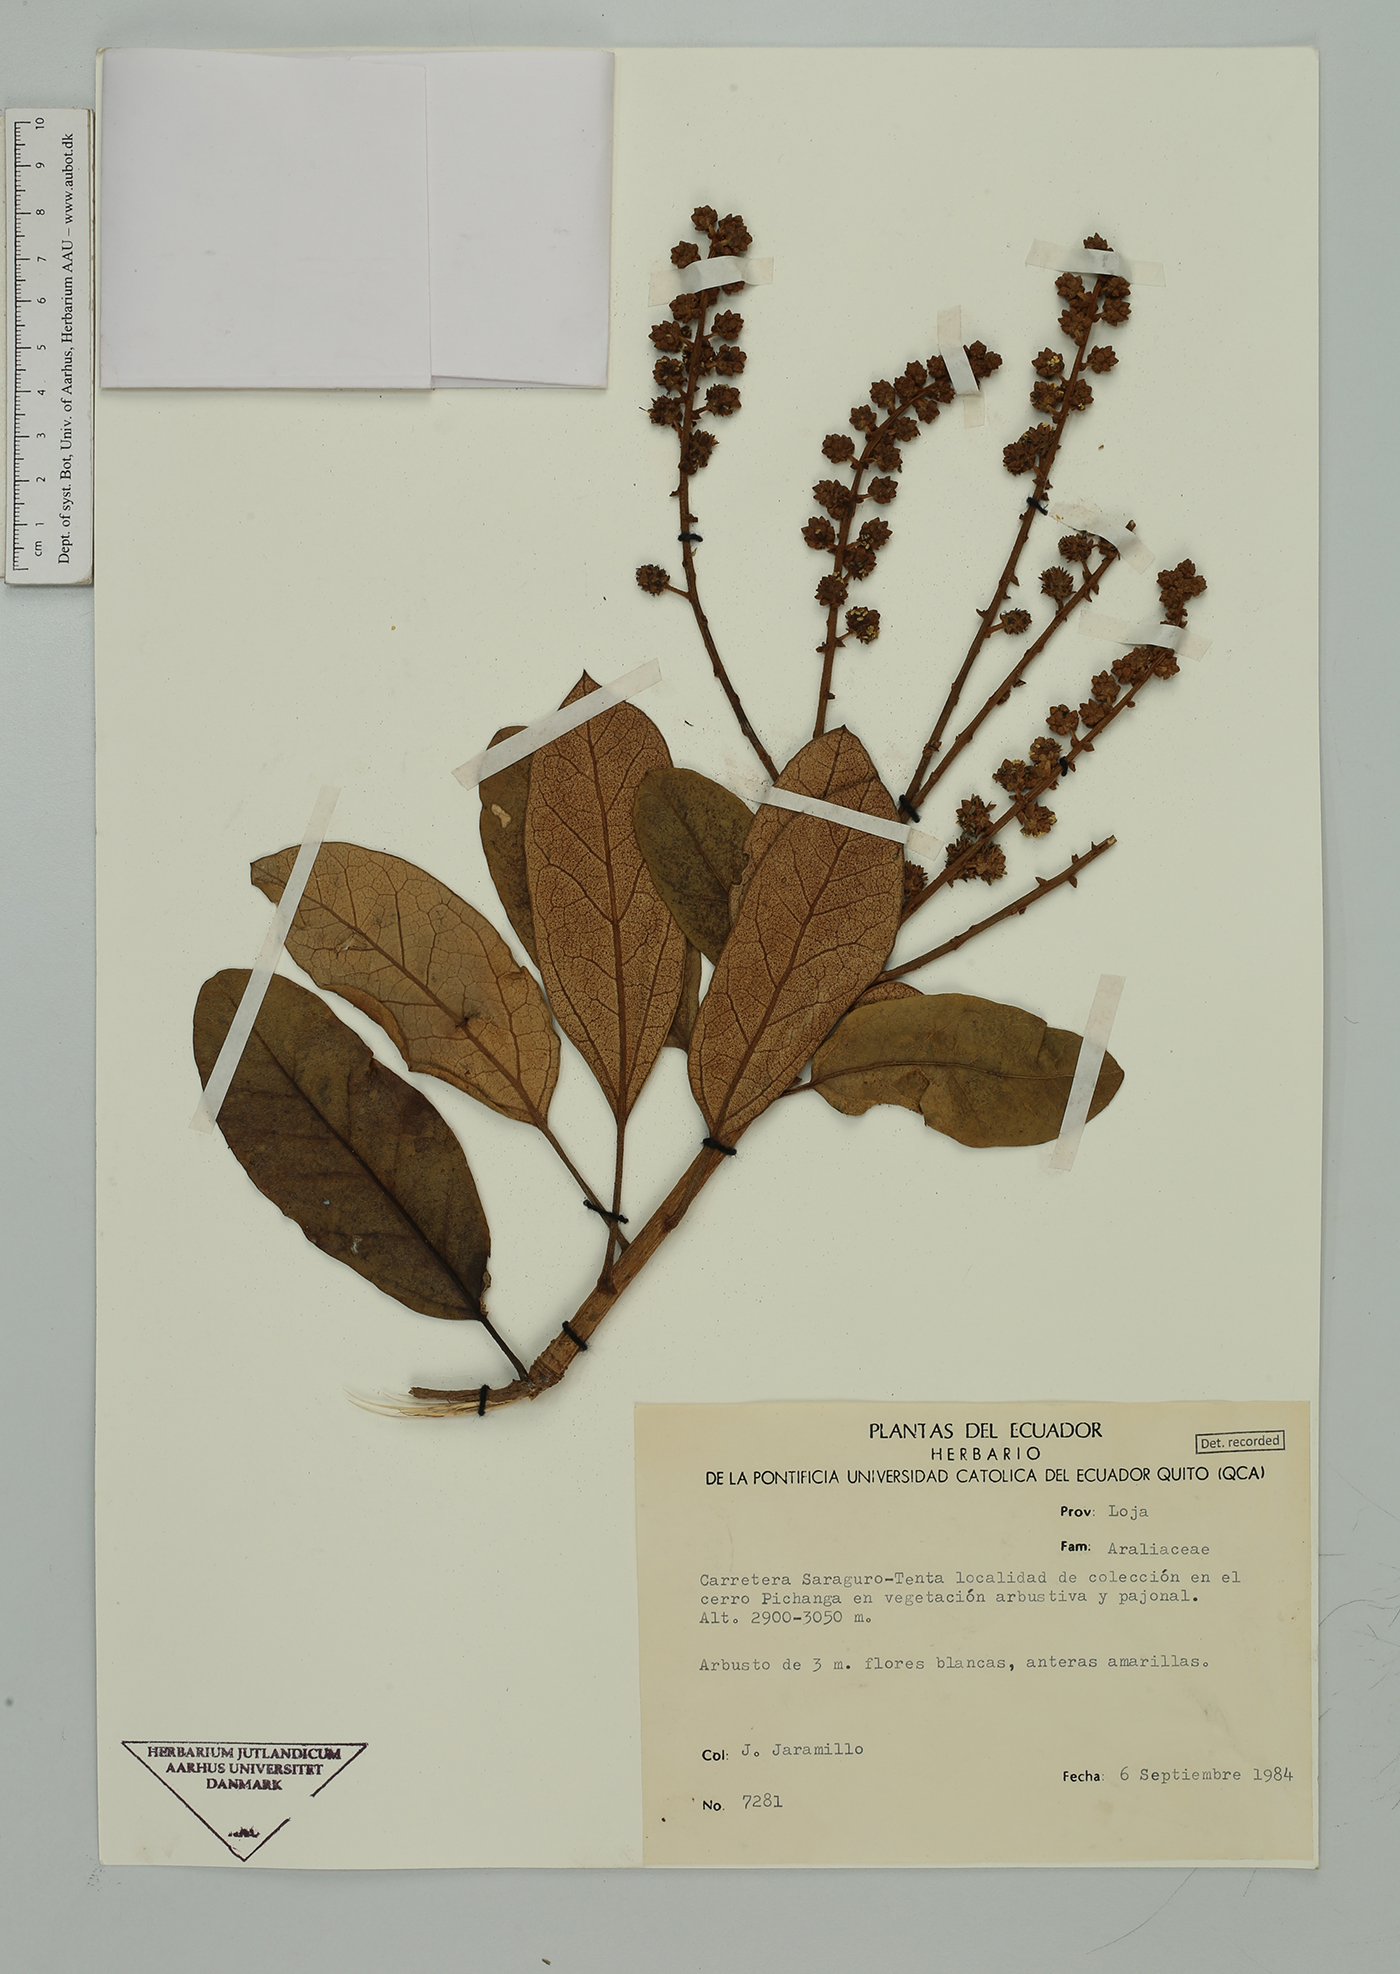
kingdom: Plantae
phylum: Tracheophyta
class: Magnoliopsida
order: Apiales
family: Araliaceae
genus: Oreopanax
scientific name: Oreopanax
